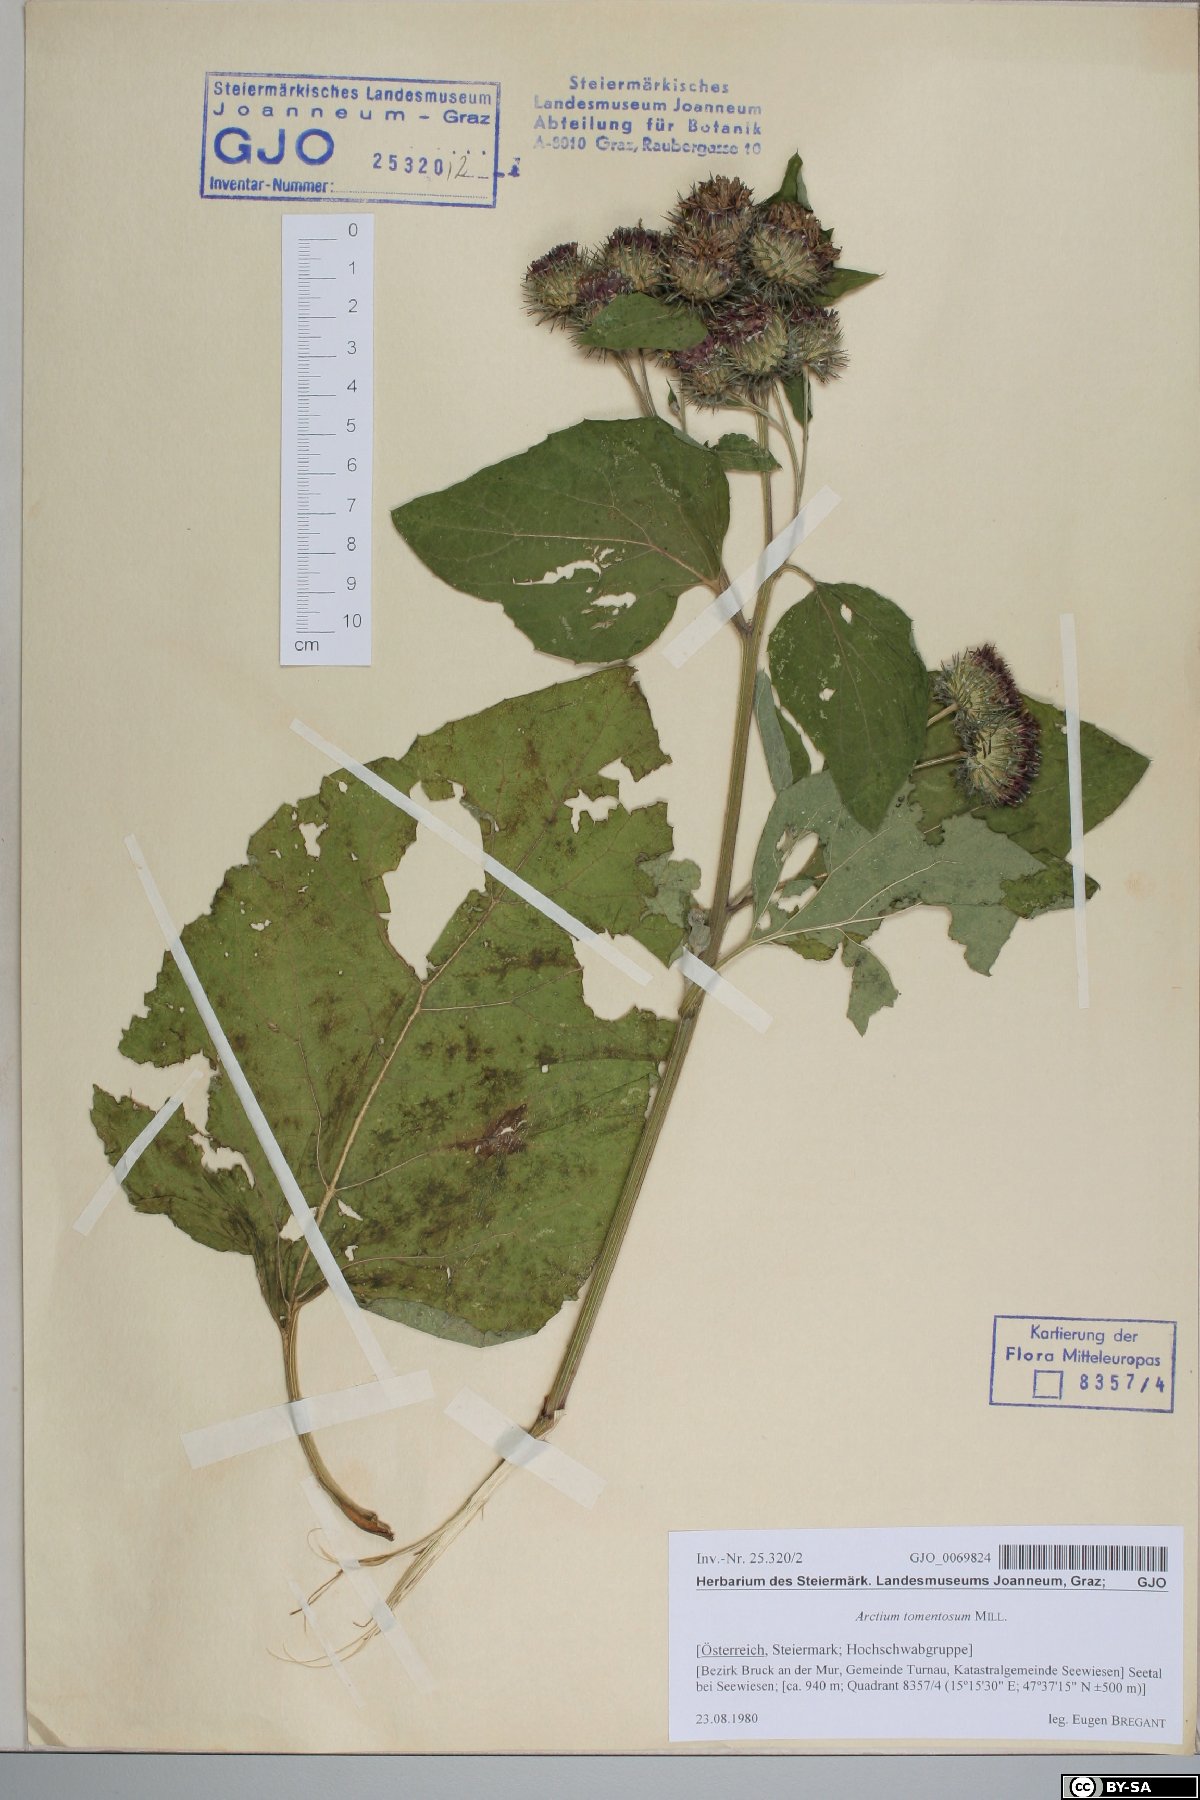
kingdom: Plantae
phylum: Tracheophyta
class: Magnoliopsida
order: Asterales
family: Asteraceae
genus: Arctium
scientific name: Arctium tomentosum
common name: Woolly burdock
